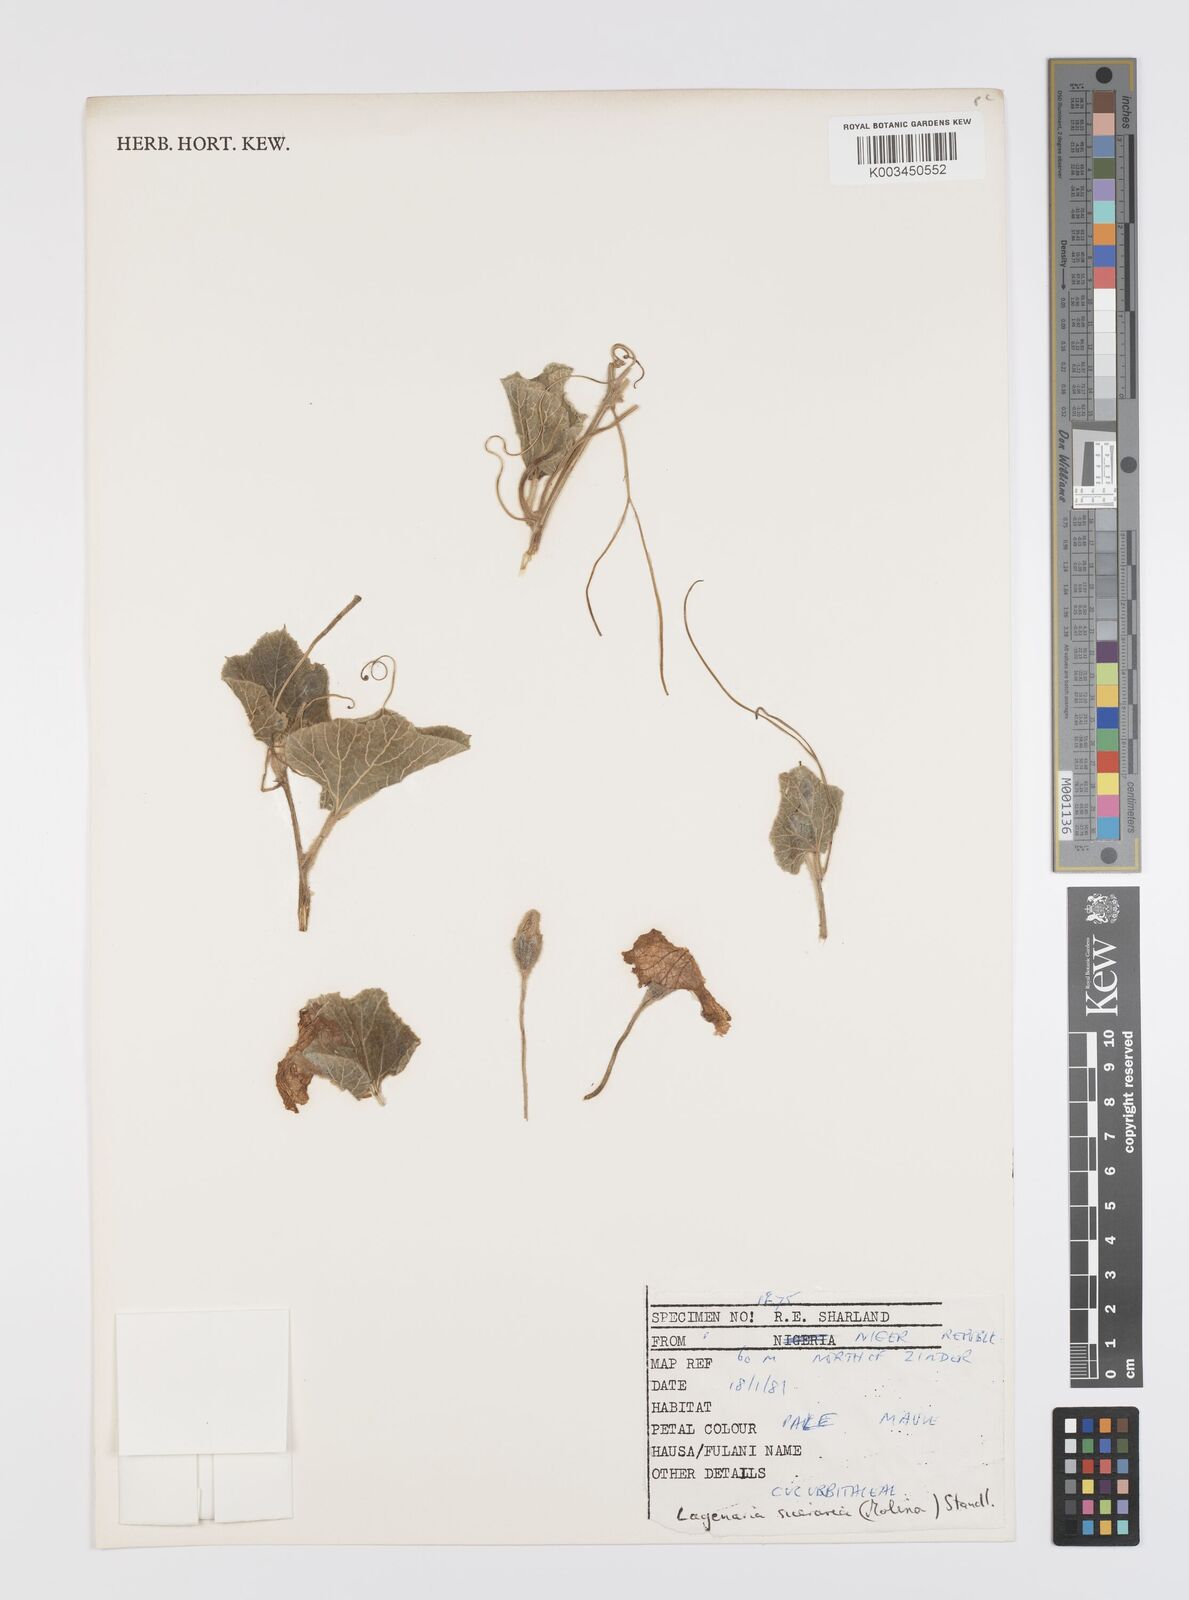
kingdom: Plantae
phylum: Tracheophyta
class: Magnoliopsida
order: Cucurbitales
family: Cucurbitaceae
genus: Lagenaria
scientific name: Lagenaria siceraria
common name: Bottle gourd
